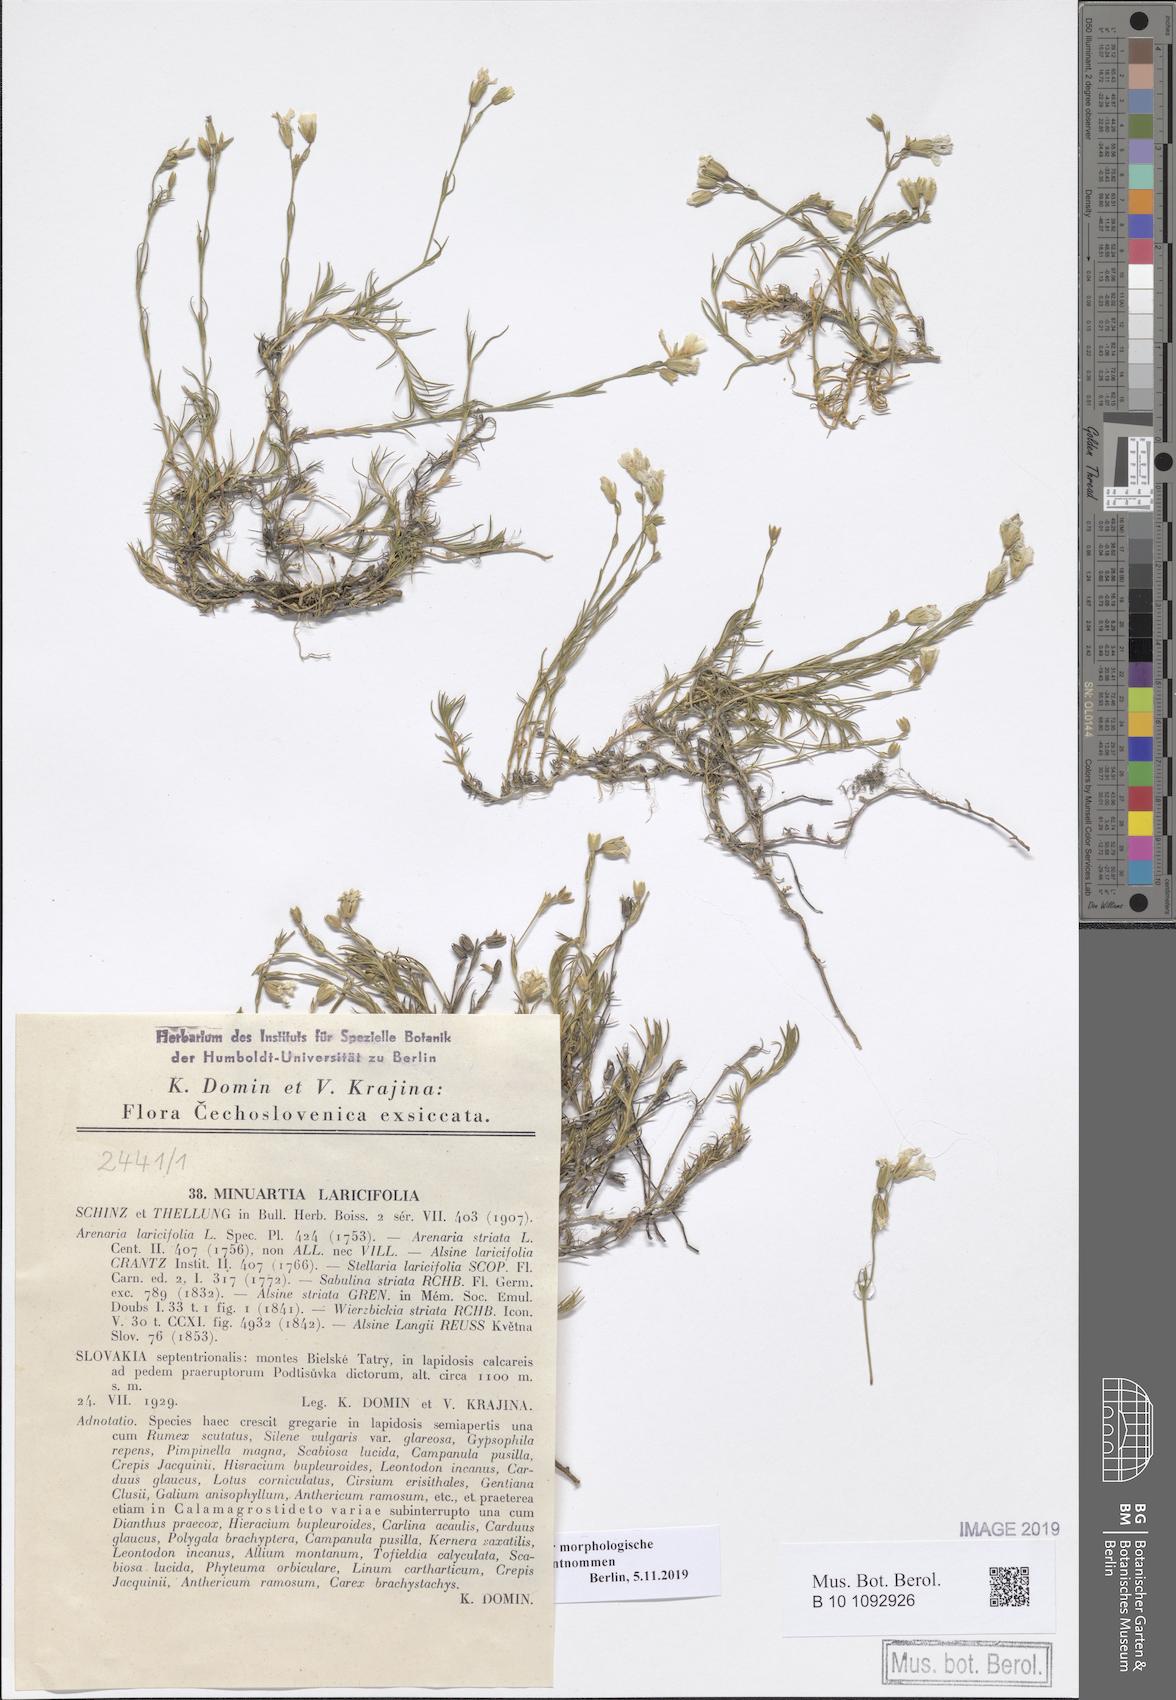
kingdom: Plantae
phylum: Tracheophyta
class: Magnoliopsida
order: Caryophyllales
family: Caryophyllaceae
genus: Cherleria
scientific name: Cherleria laricifolia
